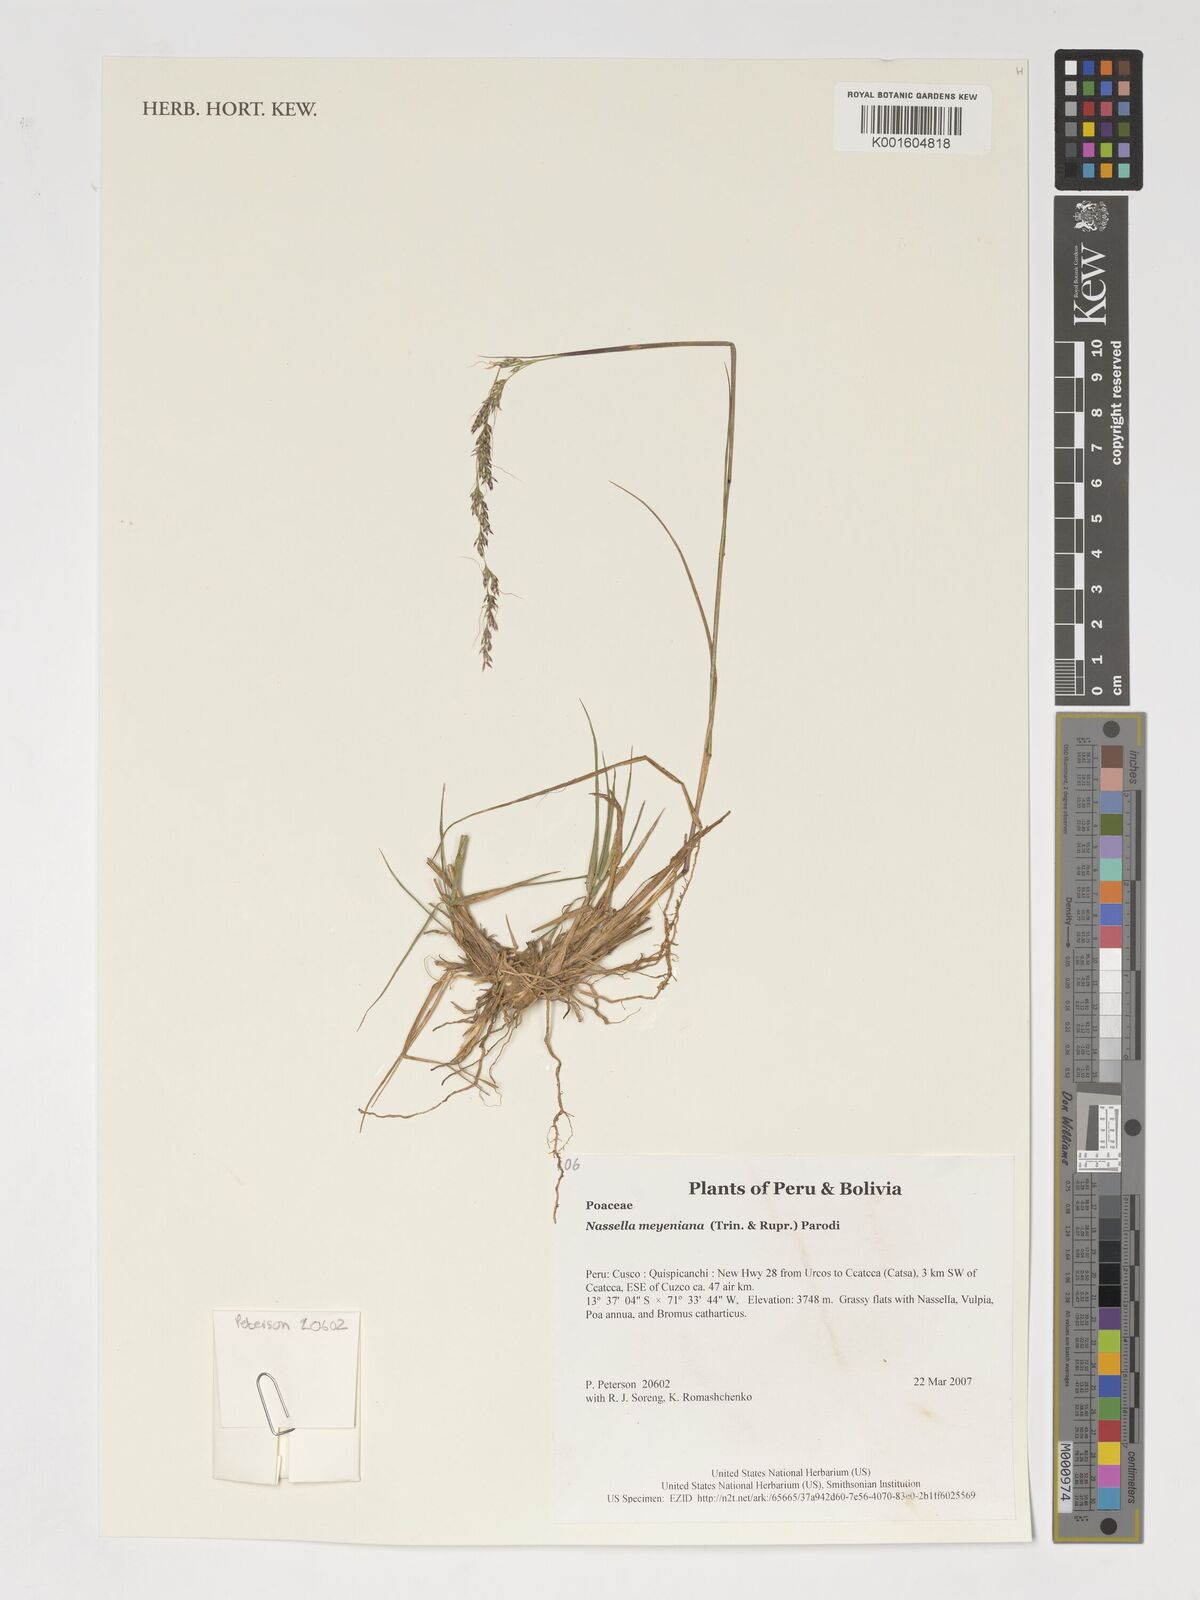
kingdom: Plantae
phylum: Tracheophyta
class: Liliopsida
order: Poales
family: Poaceae
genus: Nassella
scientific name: Nassella meyeniana
